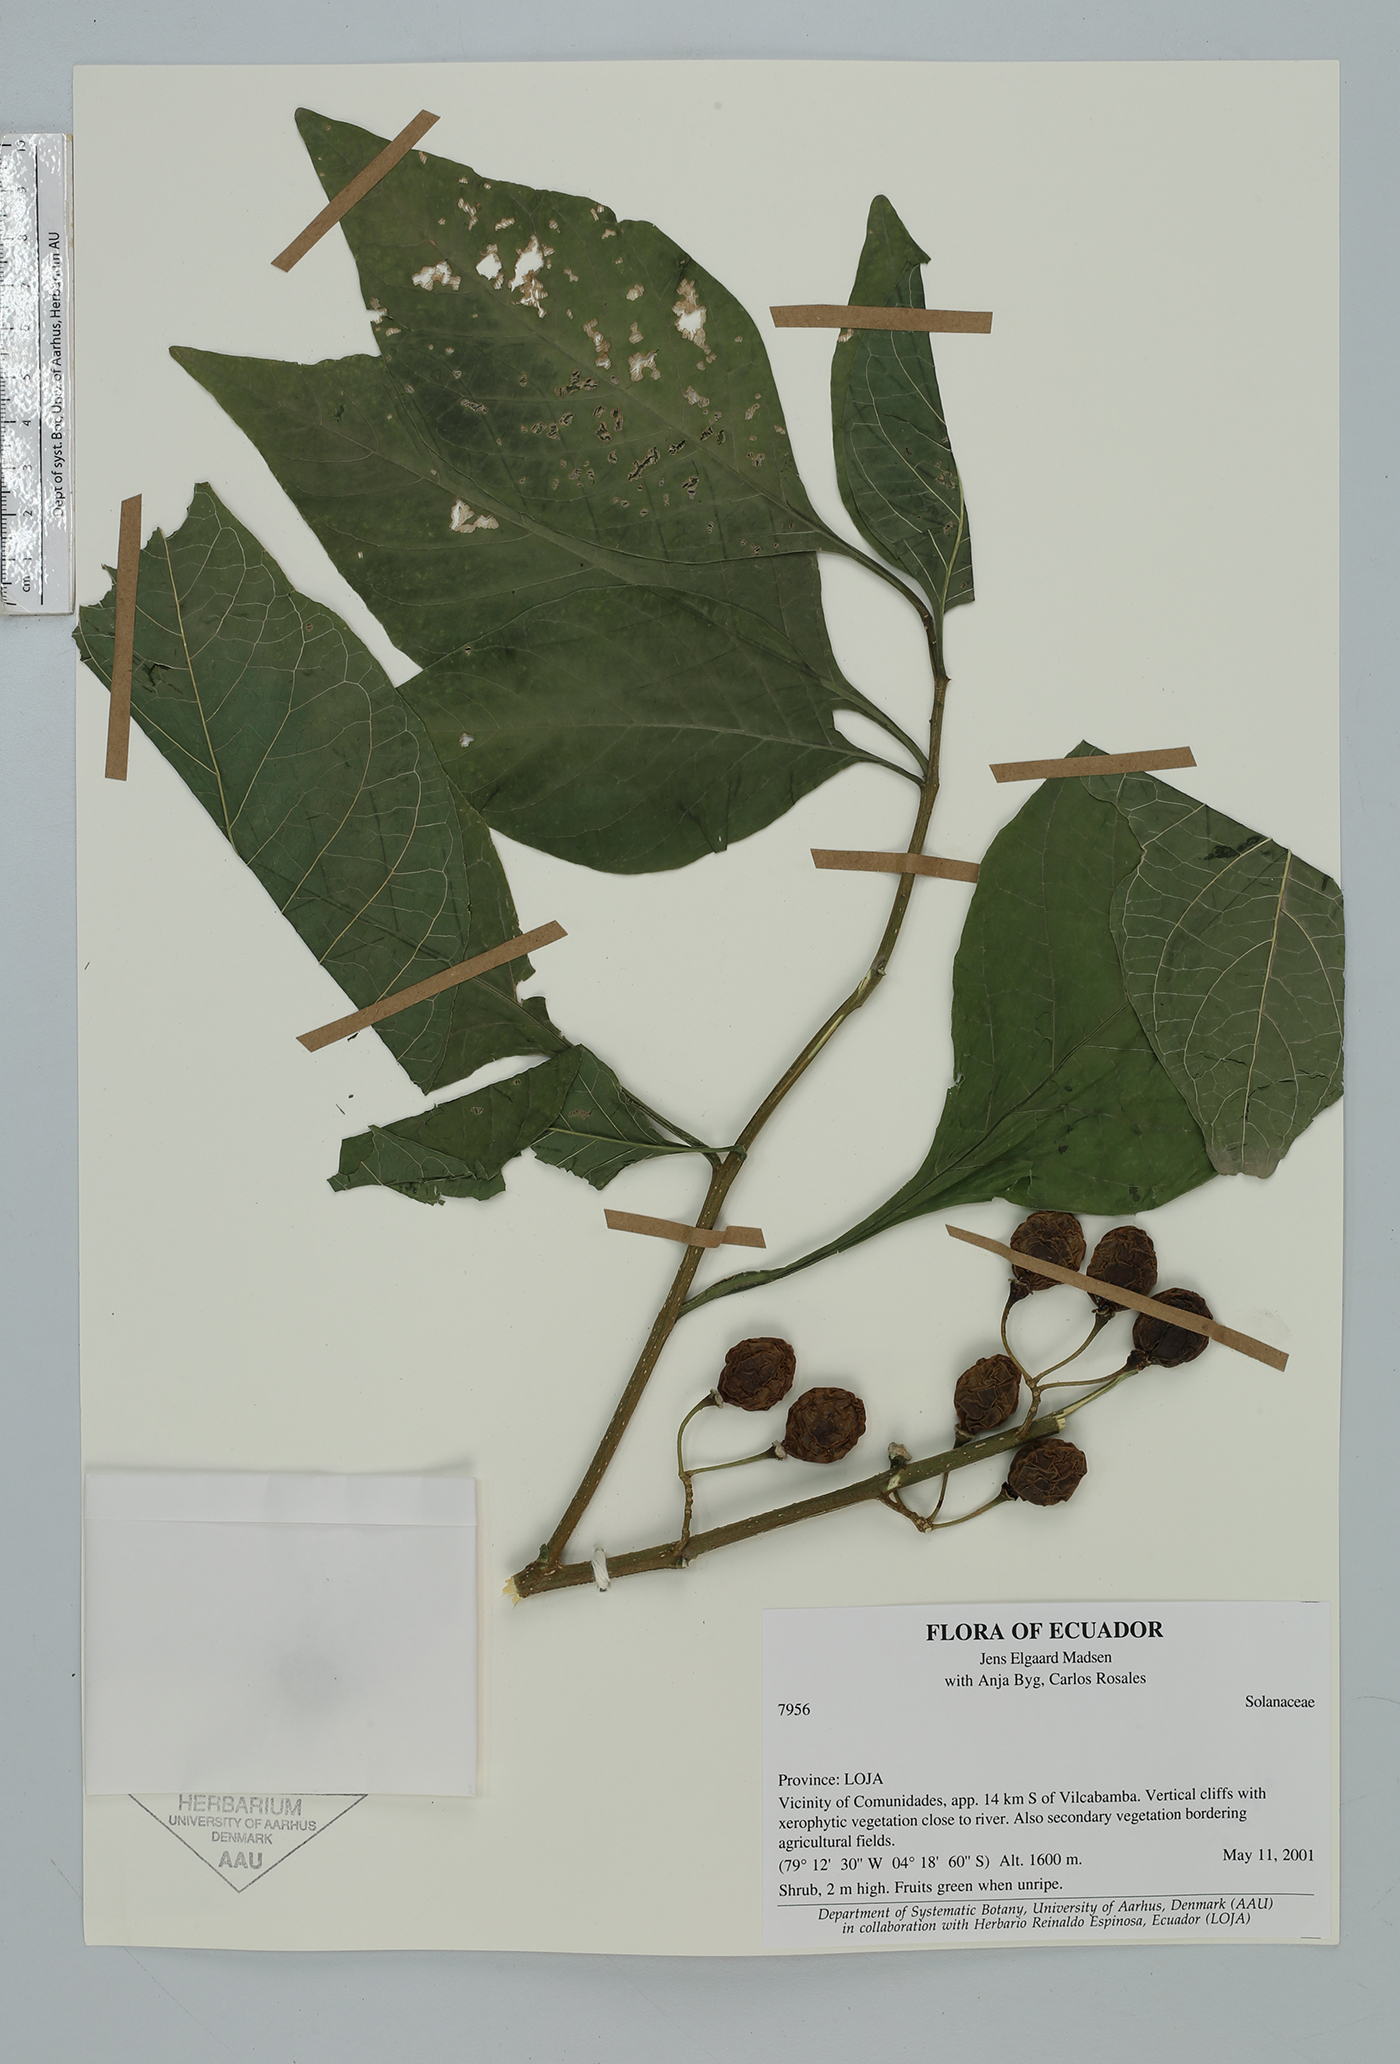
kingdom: Plantae
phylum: Tracheophyta
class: Magnoliopsida
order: Solanales
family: Solanaceae
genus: Solanum
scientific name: Solanum
